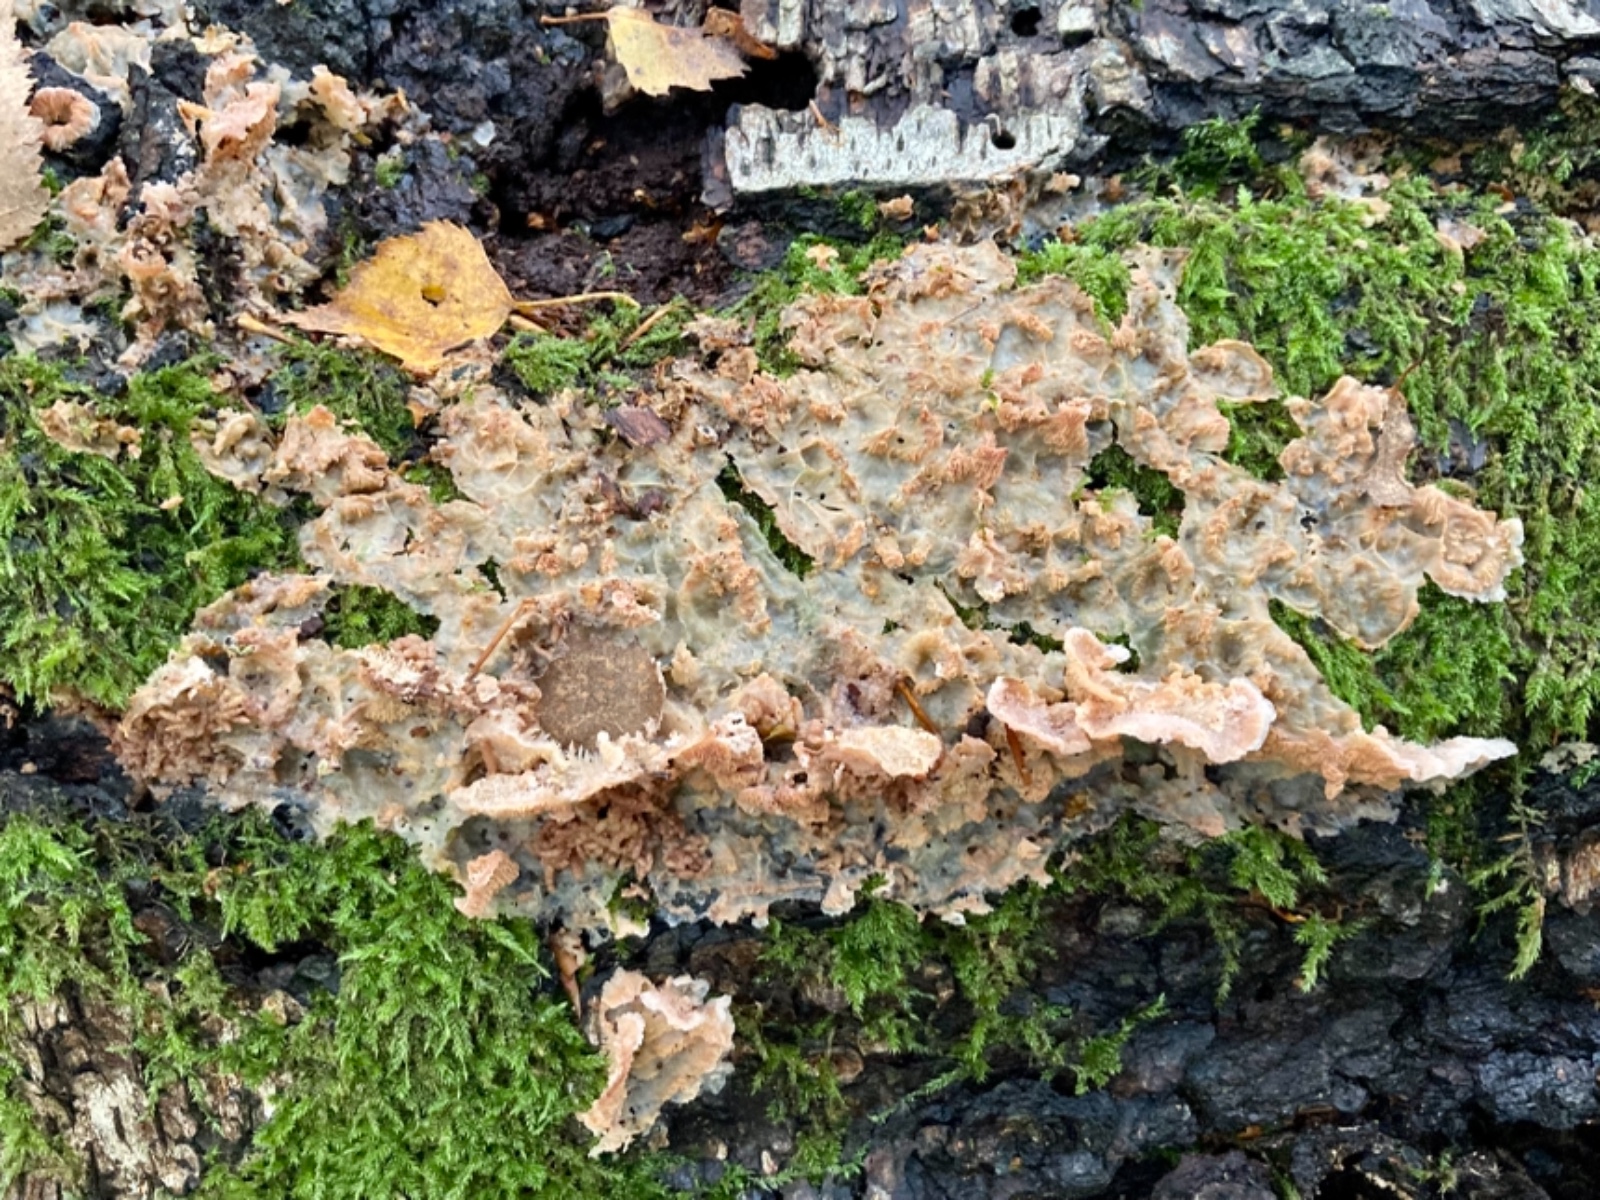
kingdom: Fungi
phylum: Basidiomycota
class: Agaricomycetes
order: Polyporales
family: Meruliaceae
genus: Phlebia
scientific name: Phlebia tremellosa
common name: bævrende åresvamp
